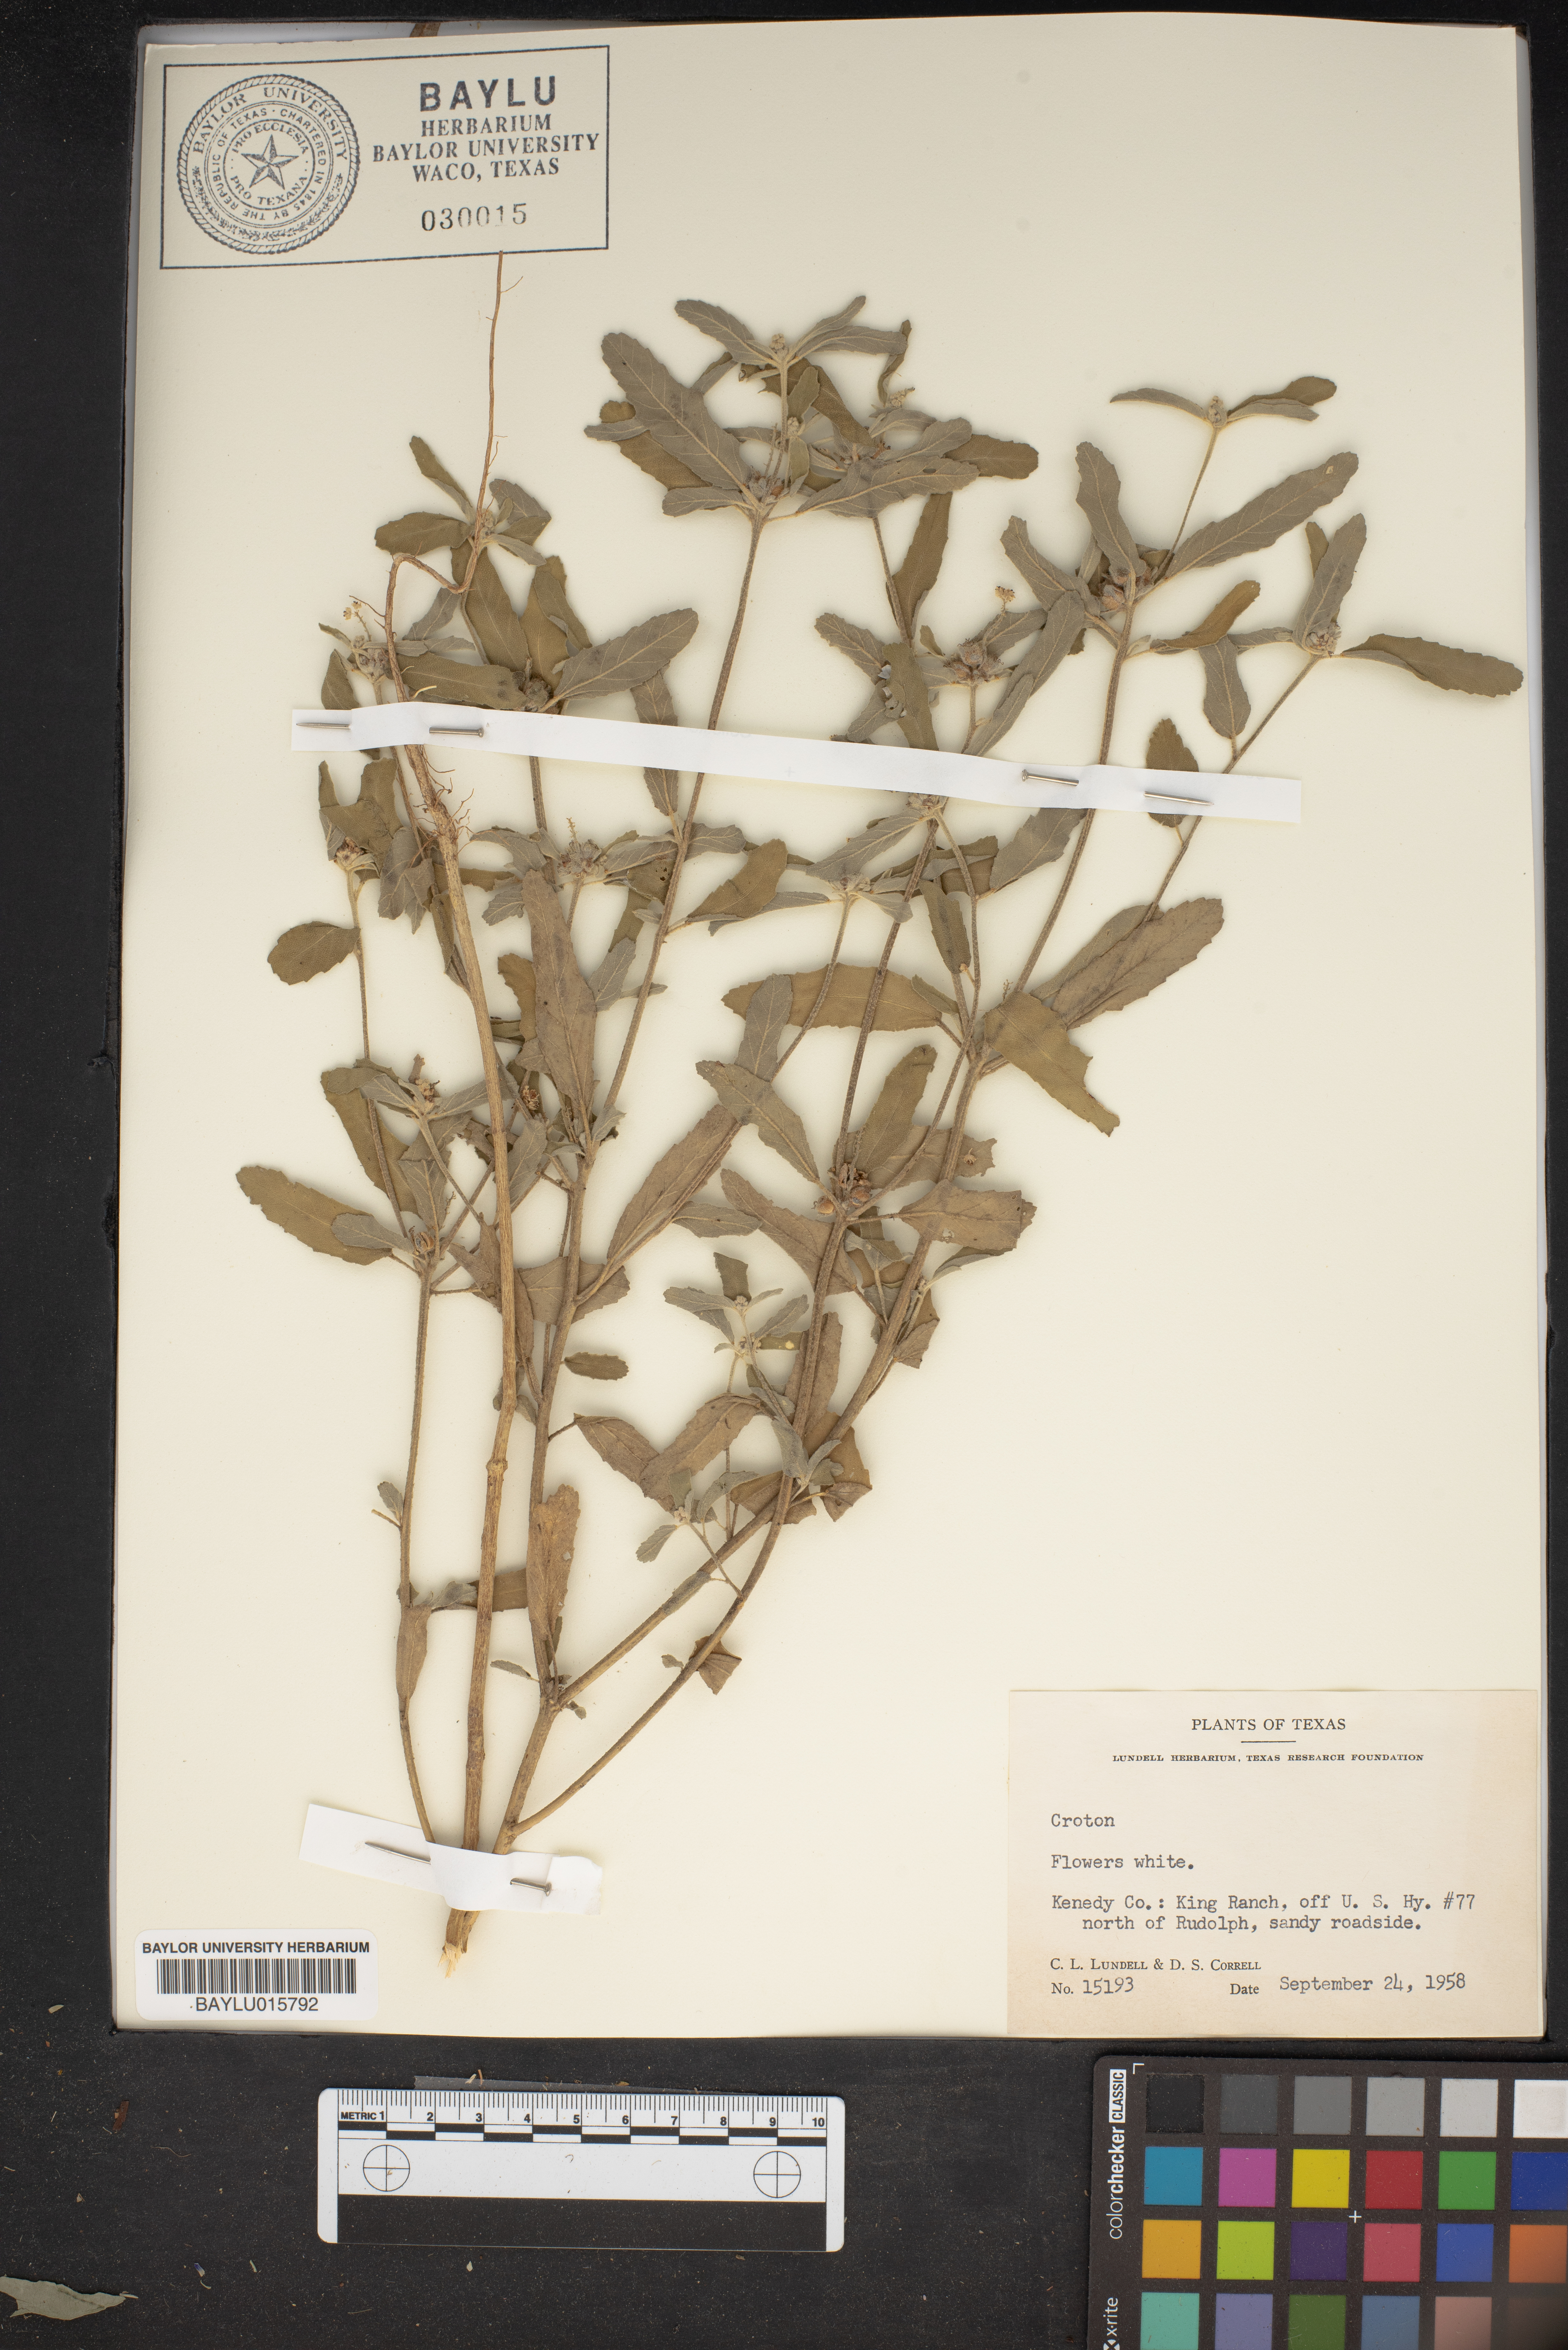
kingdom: Plantae
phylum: Tracheophyta
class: Magnoliopsida
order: Malpighiales
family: Euphorbiaceae
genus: Croton
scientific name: Croton
